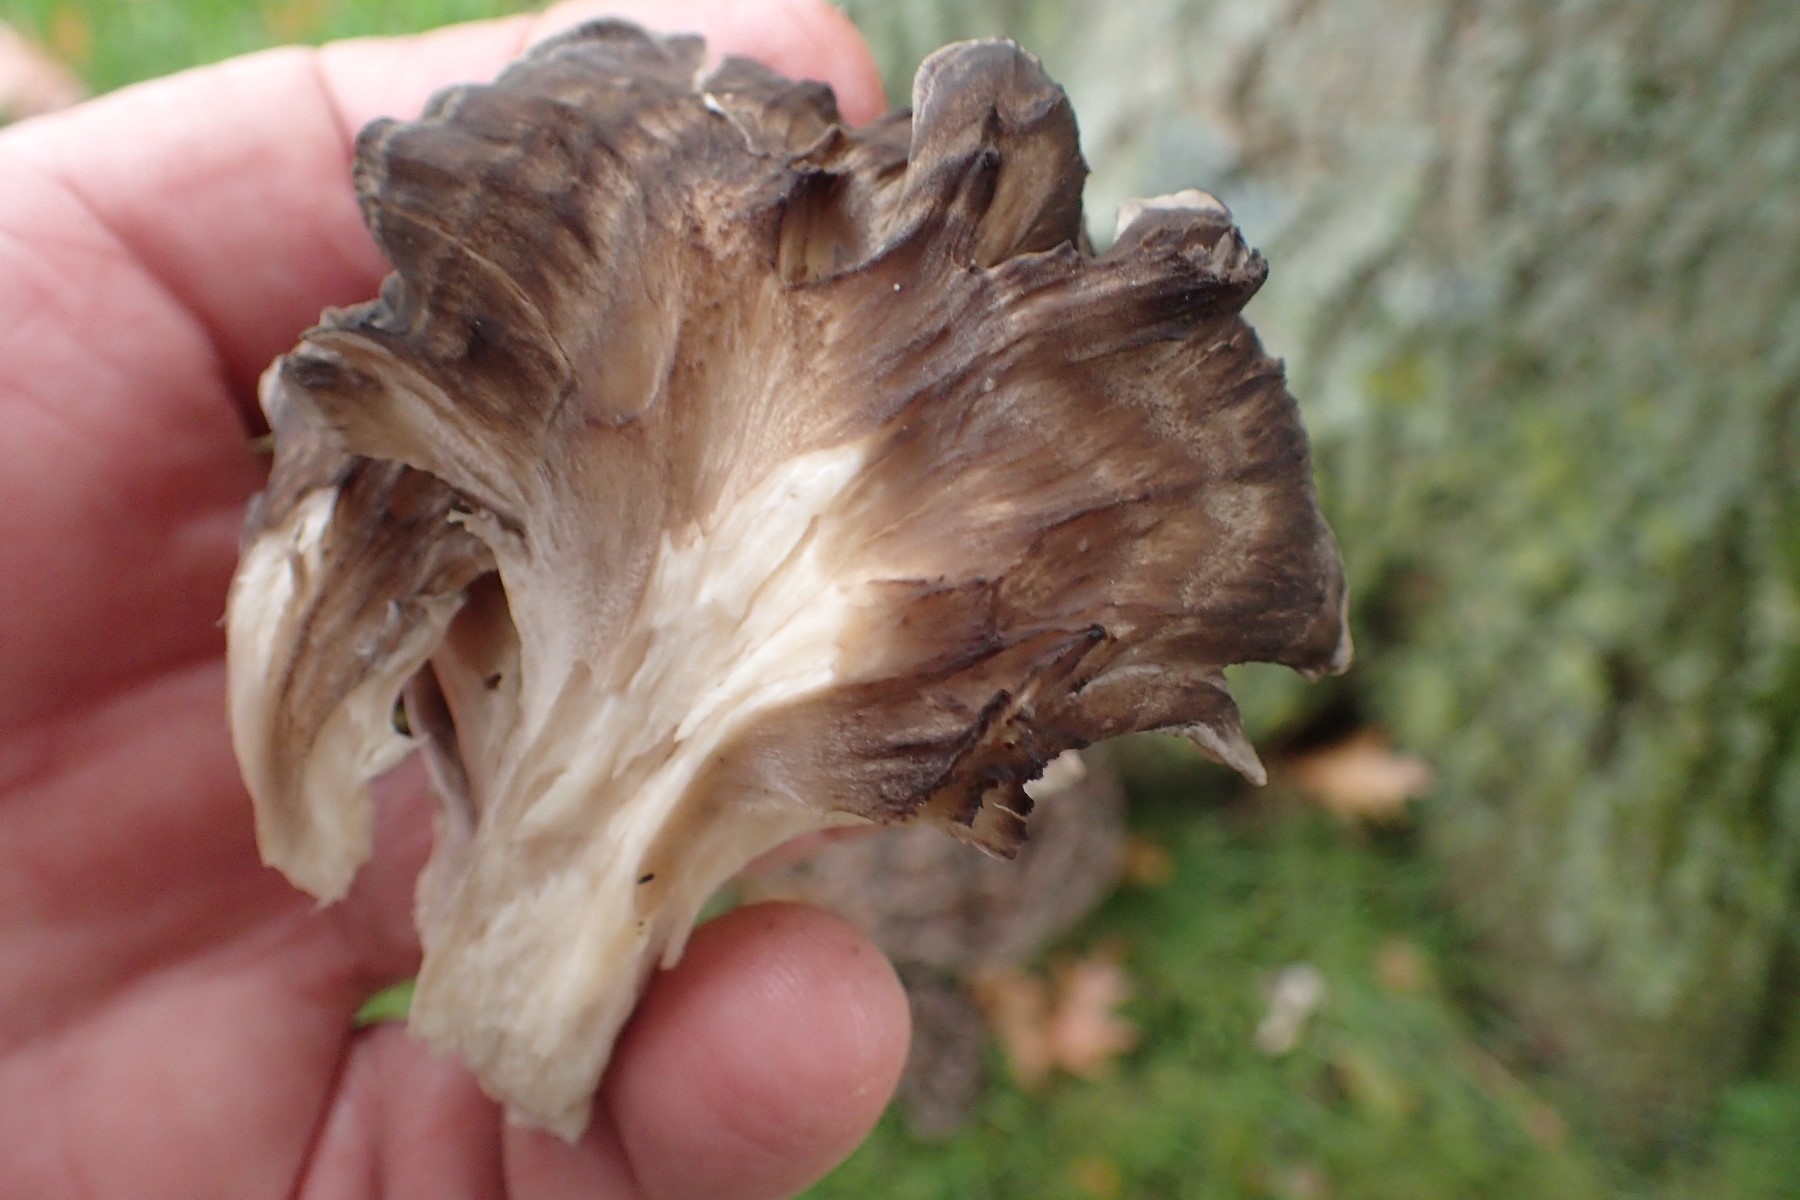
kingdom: Fungi
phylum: Basidiomycota
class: Agaricomycetes
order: Polyporales
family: Grifolaceae
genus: Grifola
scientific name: Grifola frondosa
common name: tueporesvamp
